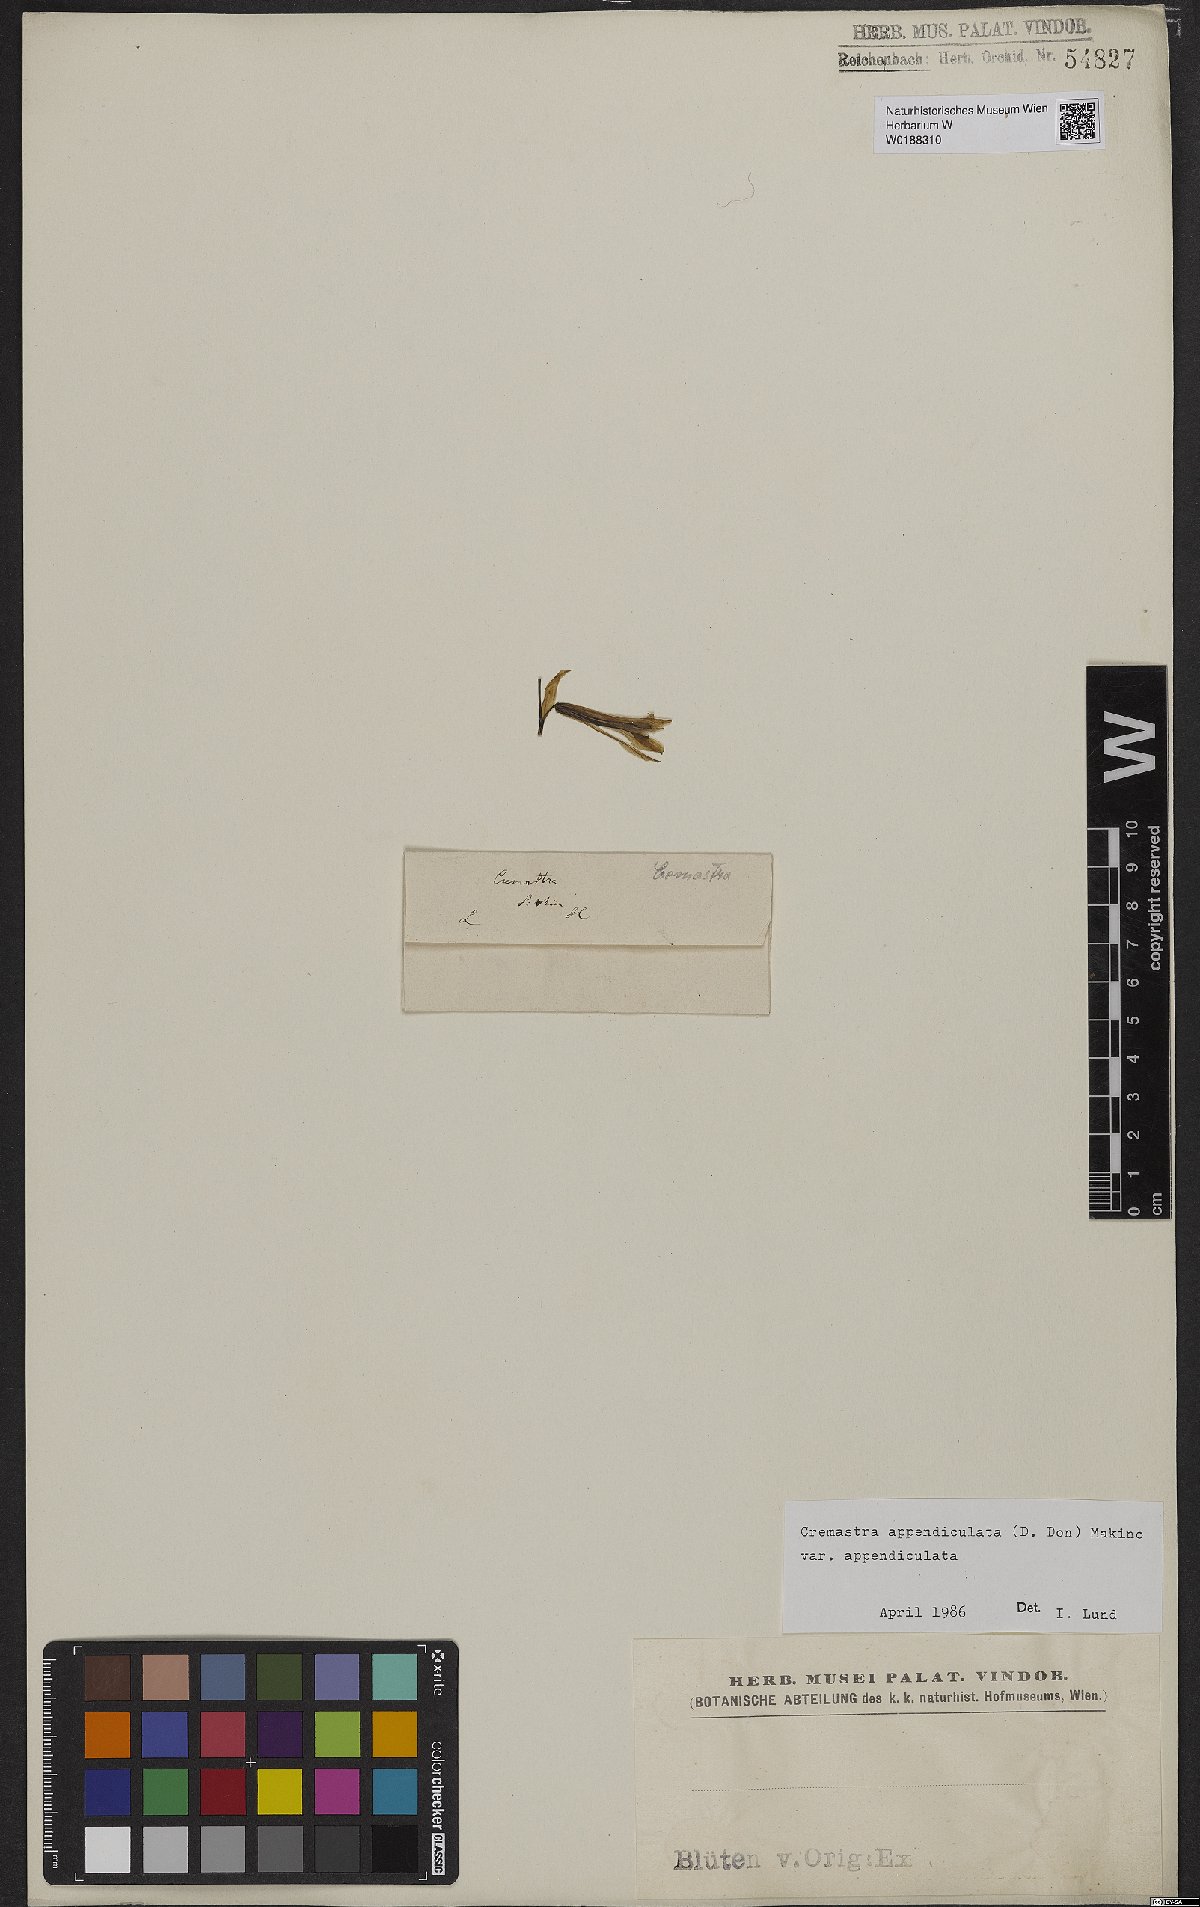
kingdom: Plantae
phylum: Tracheophyta
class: Liliopsida
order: Asparagales
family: Orchidaceae
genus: Cremastra
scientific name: Cremastra appendiculata
